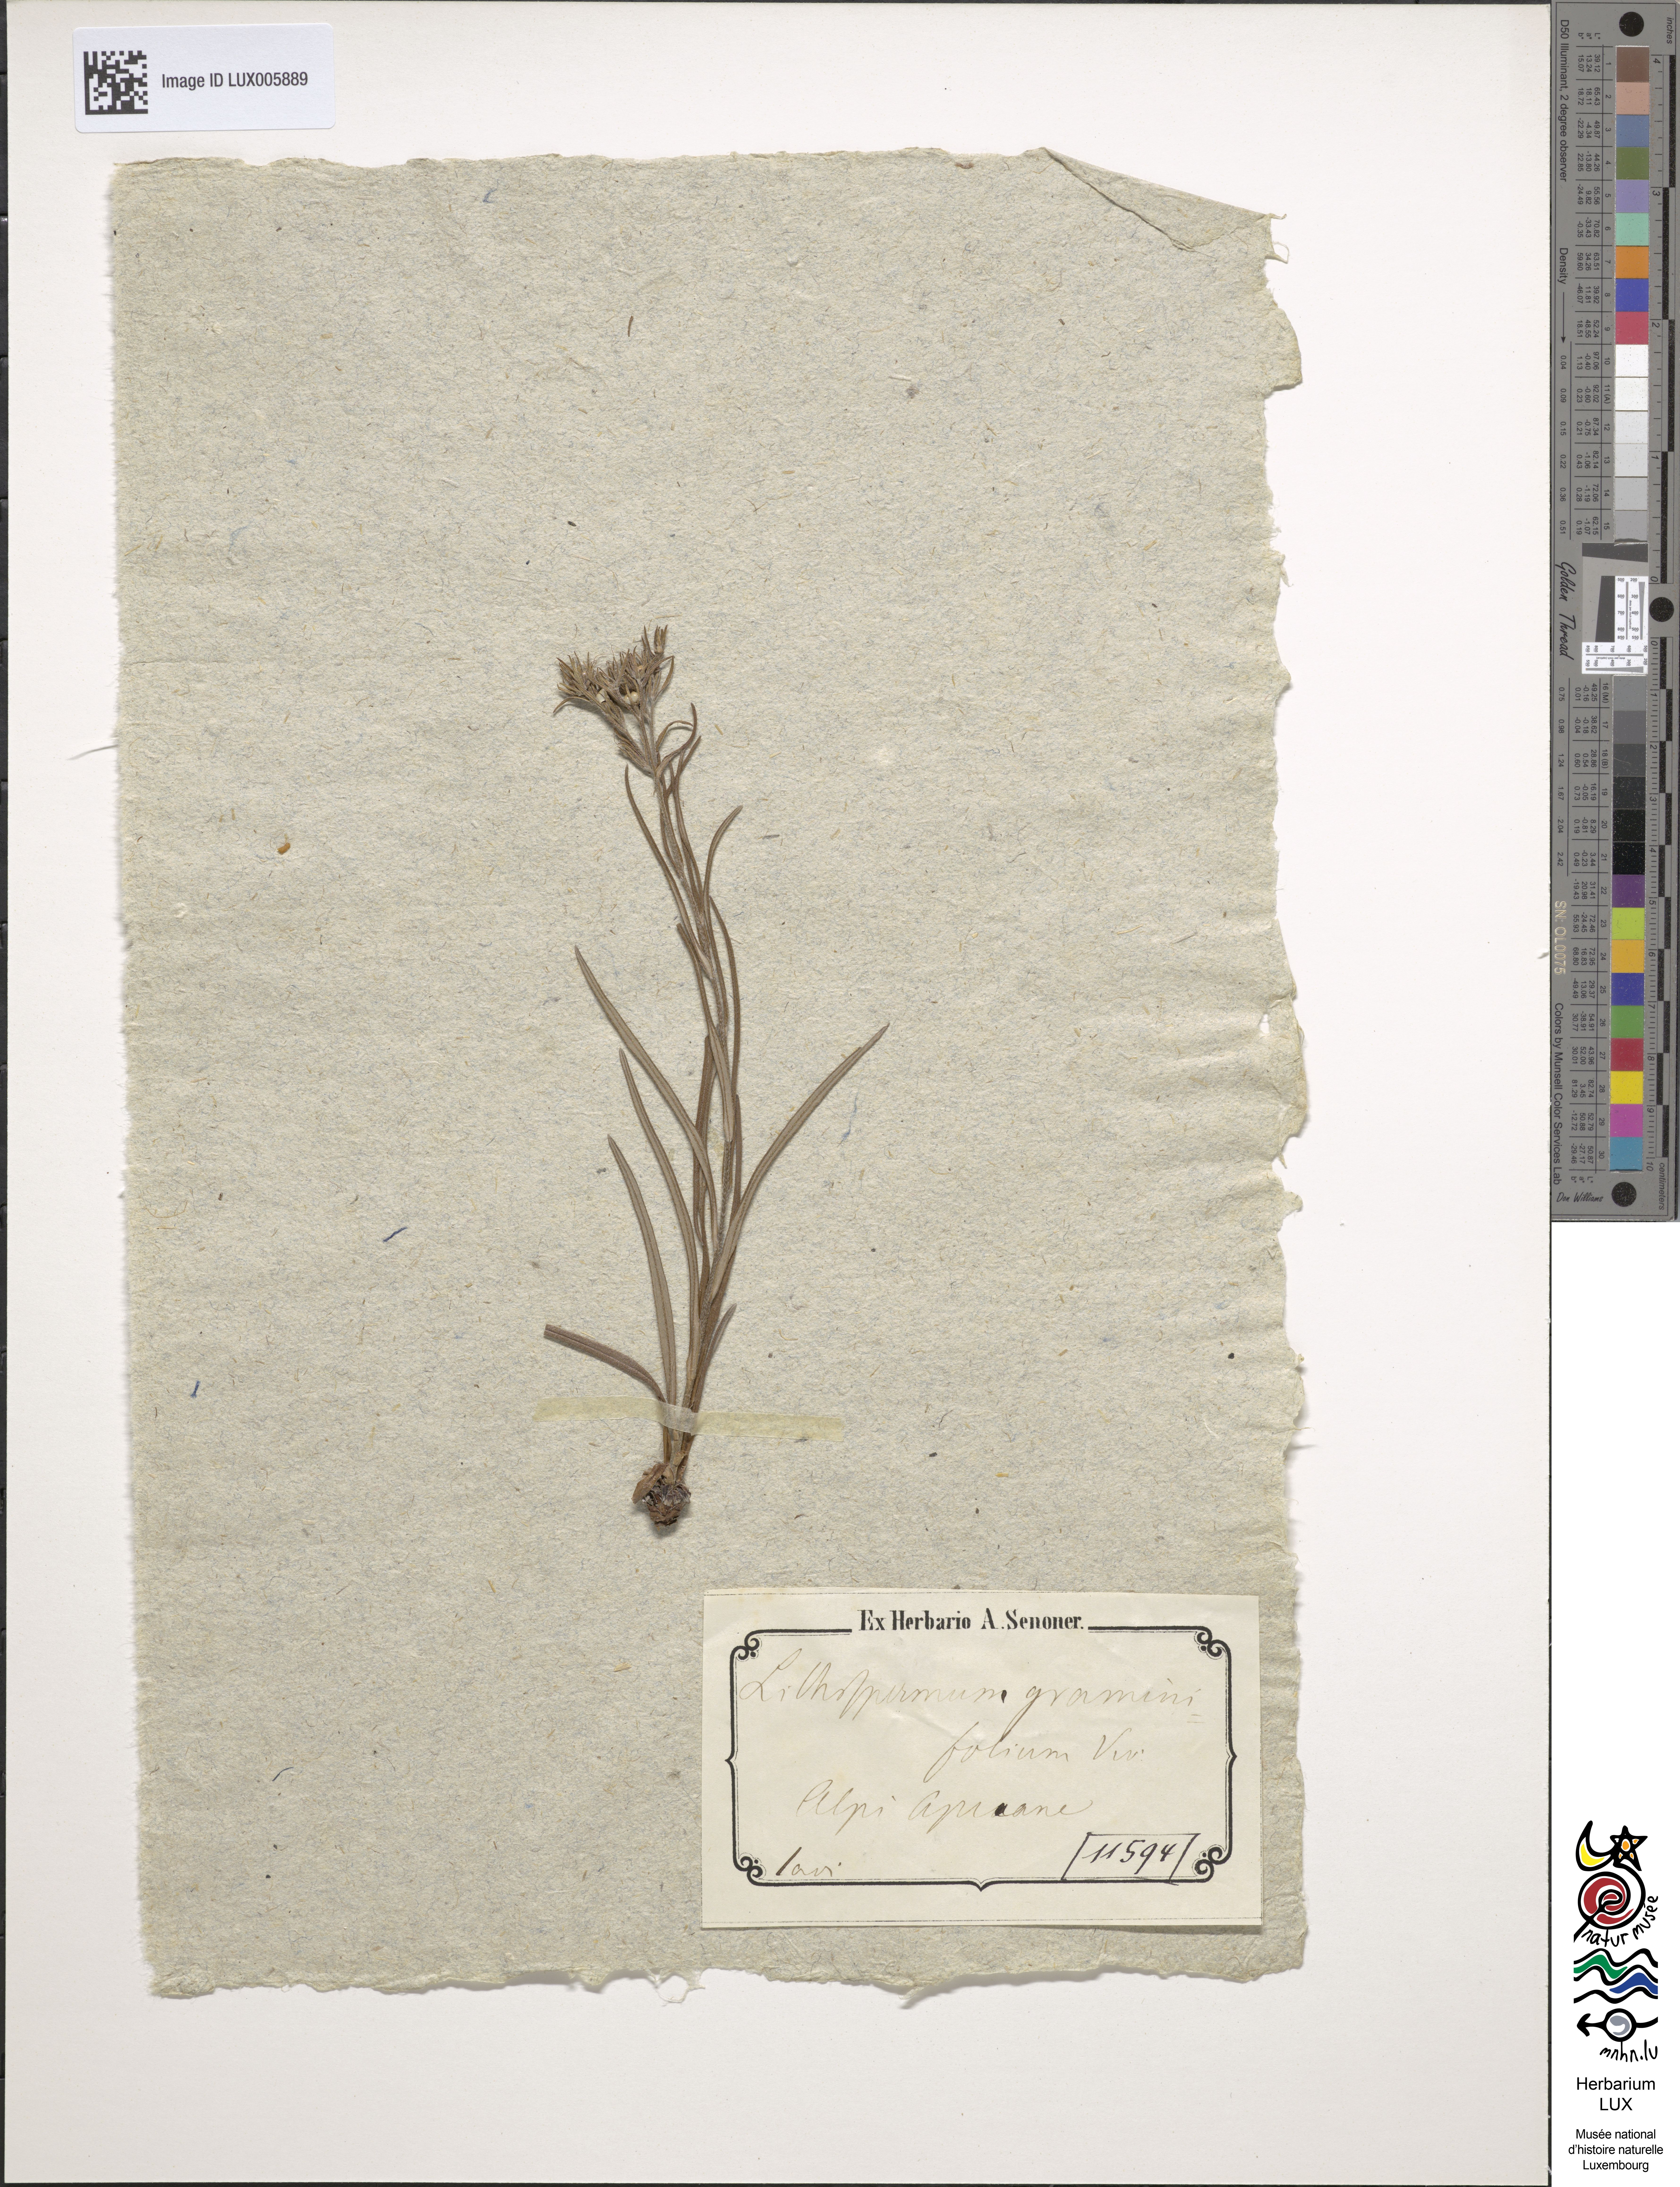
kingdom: Plantae
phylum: Tracheophyta
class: Magnoliopsida
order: Boraginales
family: Boraginaceae
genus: Moltkia
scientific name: Moltkia suffruticosa
